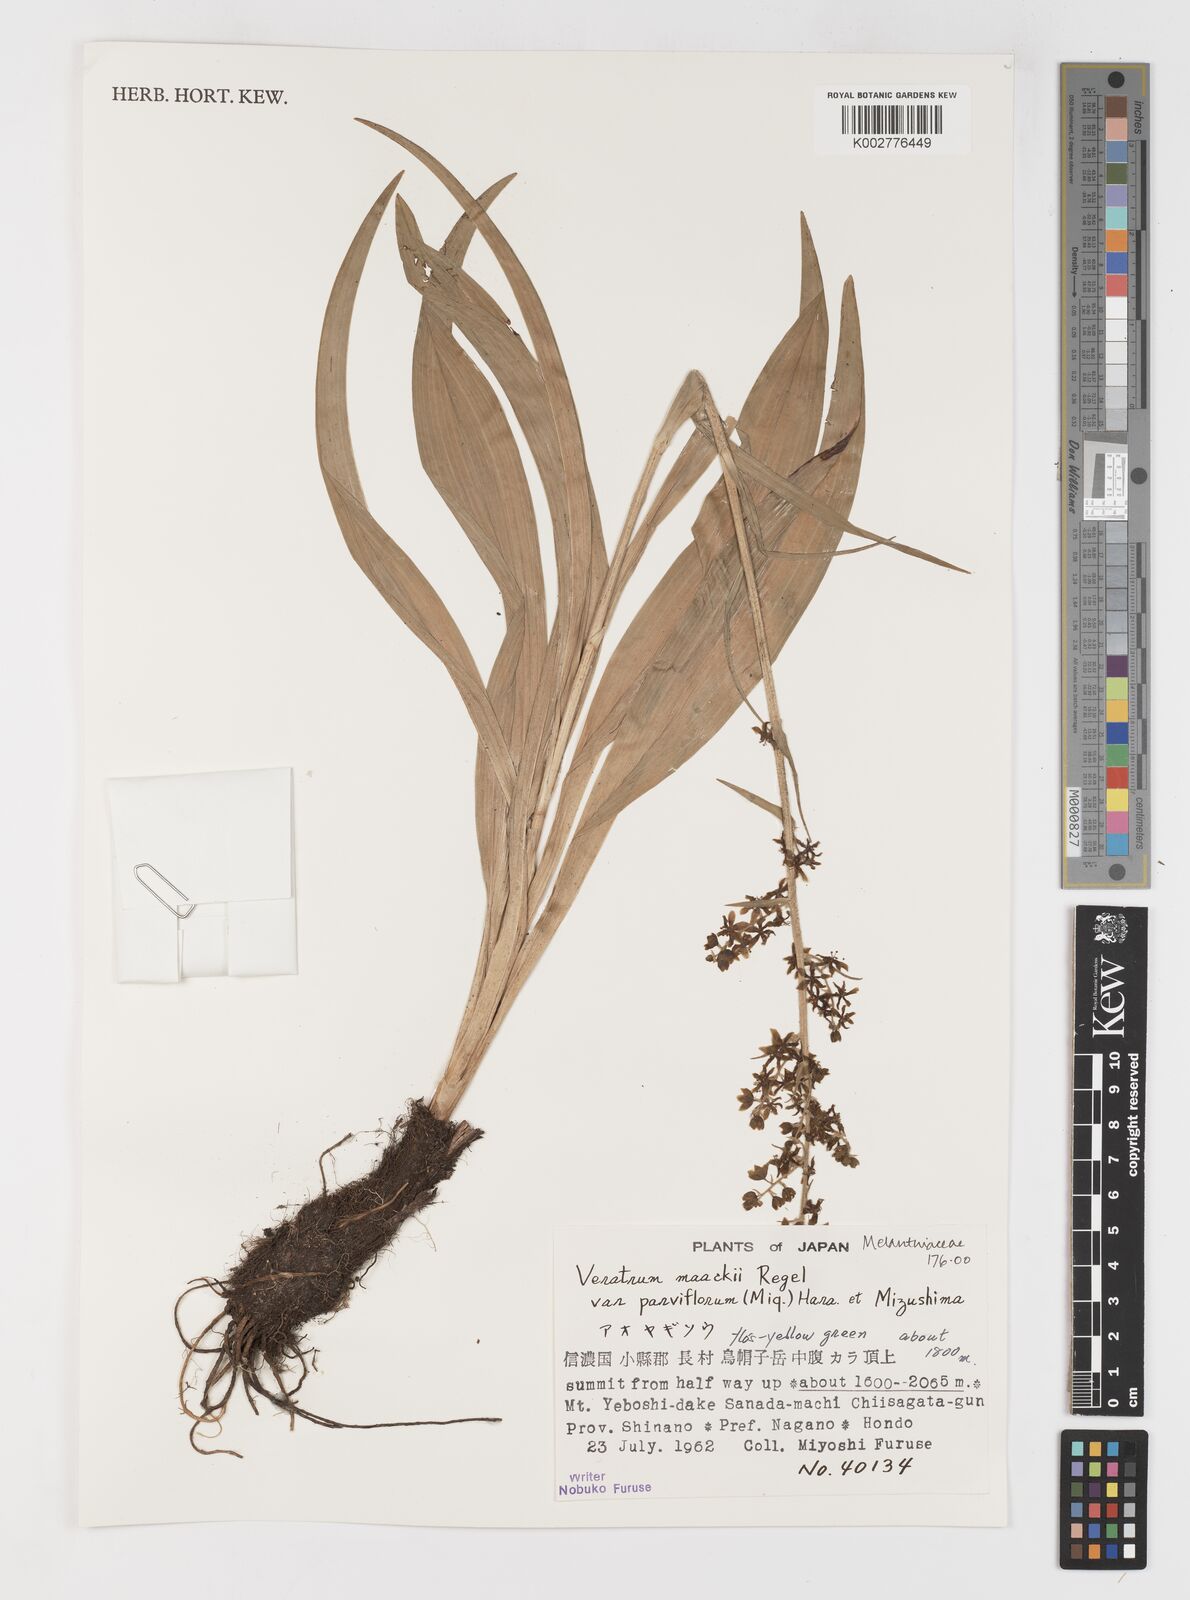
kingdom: Plantae
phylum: Tracheophyta
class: Liliopsida
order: Liliales
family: Melanthiaceae
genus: Veratrum
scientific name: Veratrum maackii
